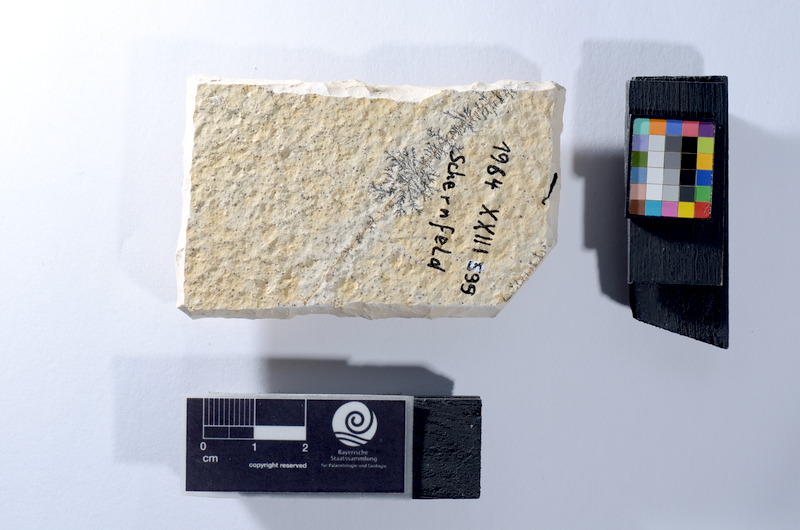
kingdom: Animalia
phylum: Chordata
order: Salmoniformes
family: Orthogonikleithridae
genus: Leptolepides
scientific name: Leptolepides sprattiformis
